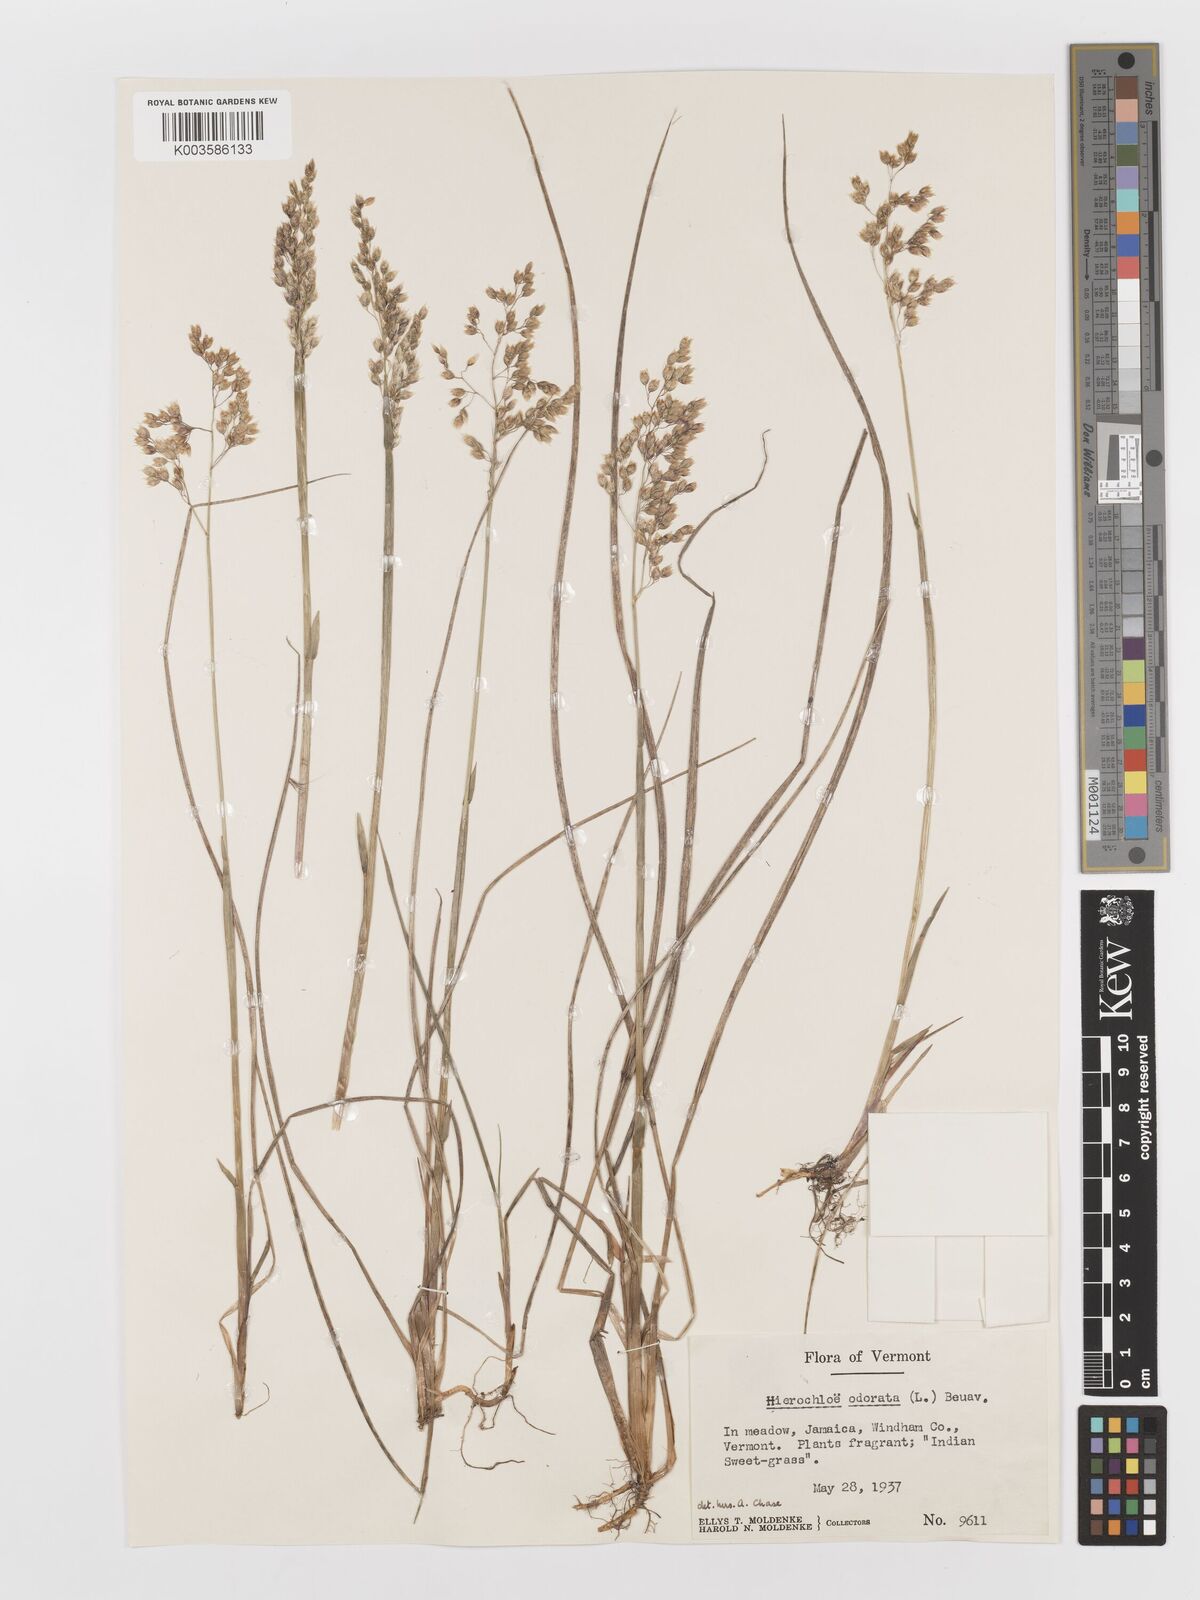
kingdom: Plantae
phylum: Tracheophyta
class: Liliopsida
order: Poales
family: Poaceae
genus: Anthoxanthum
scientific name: Anthoxanthum nitens
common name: Holy grass
